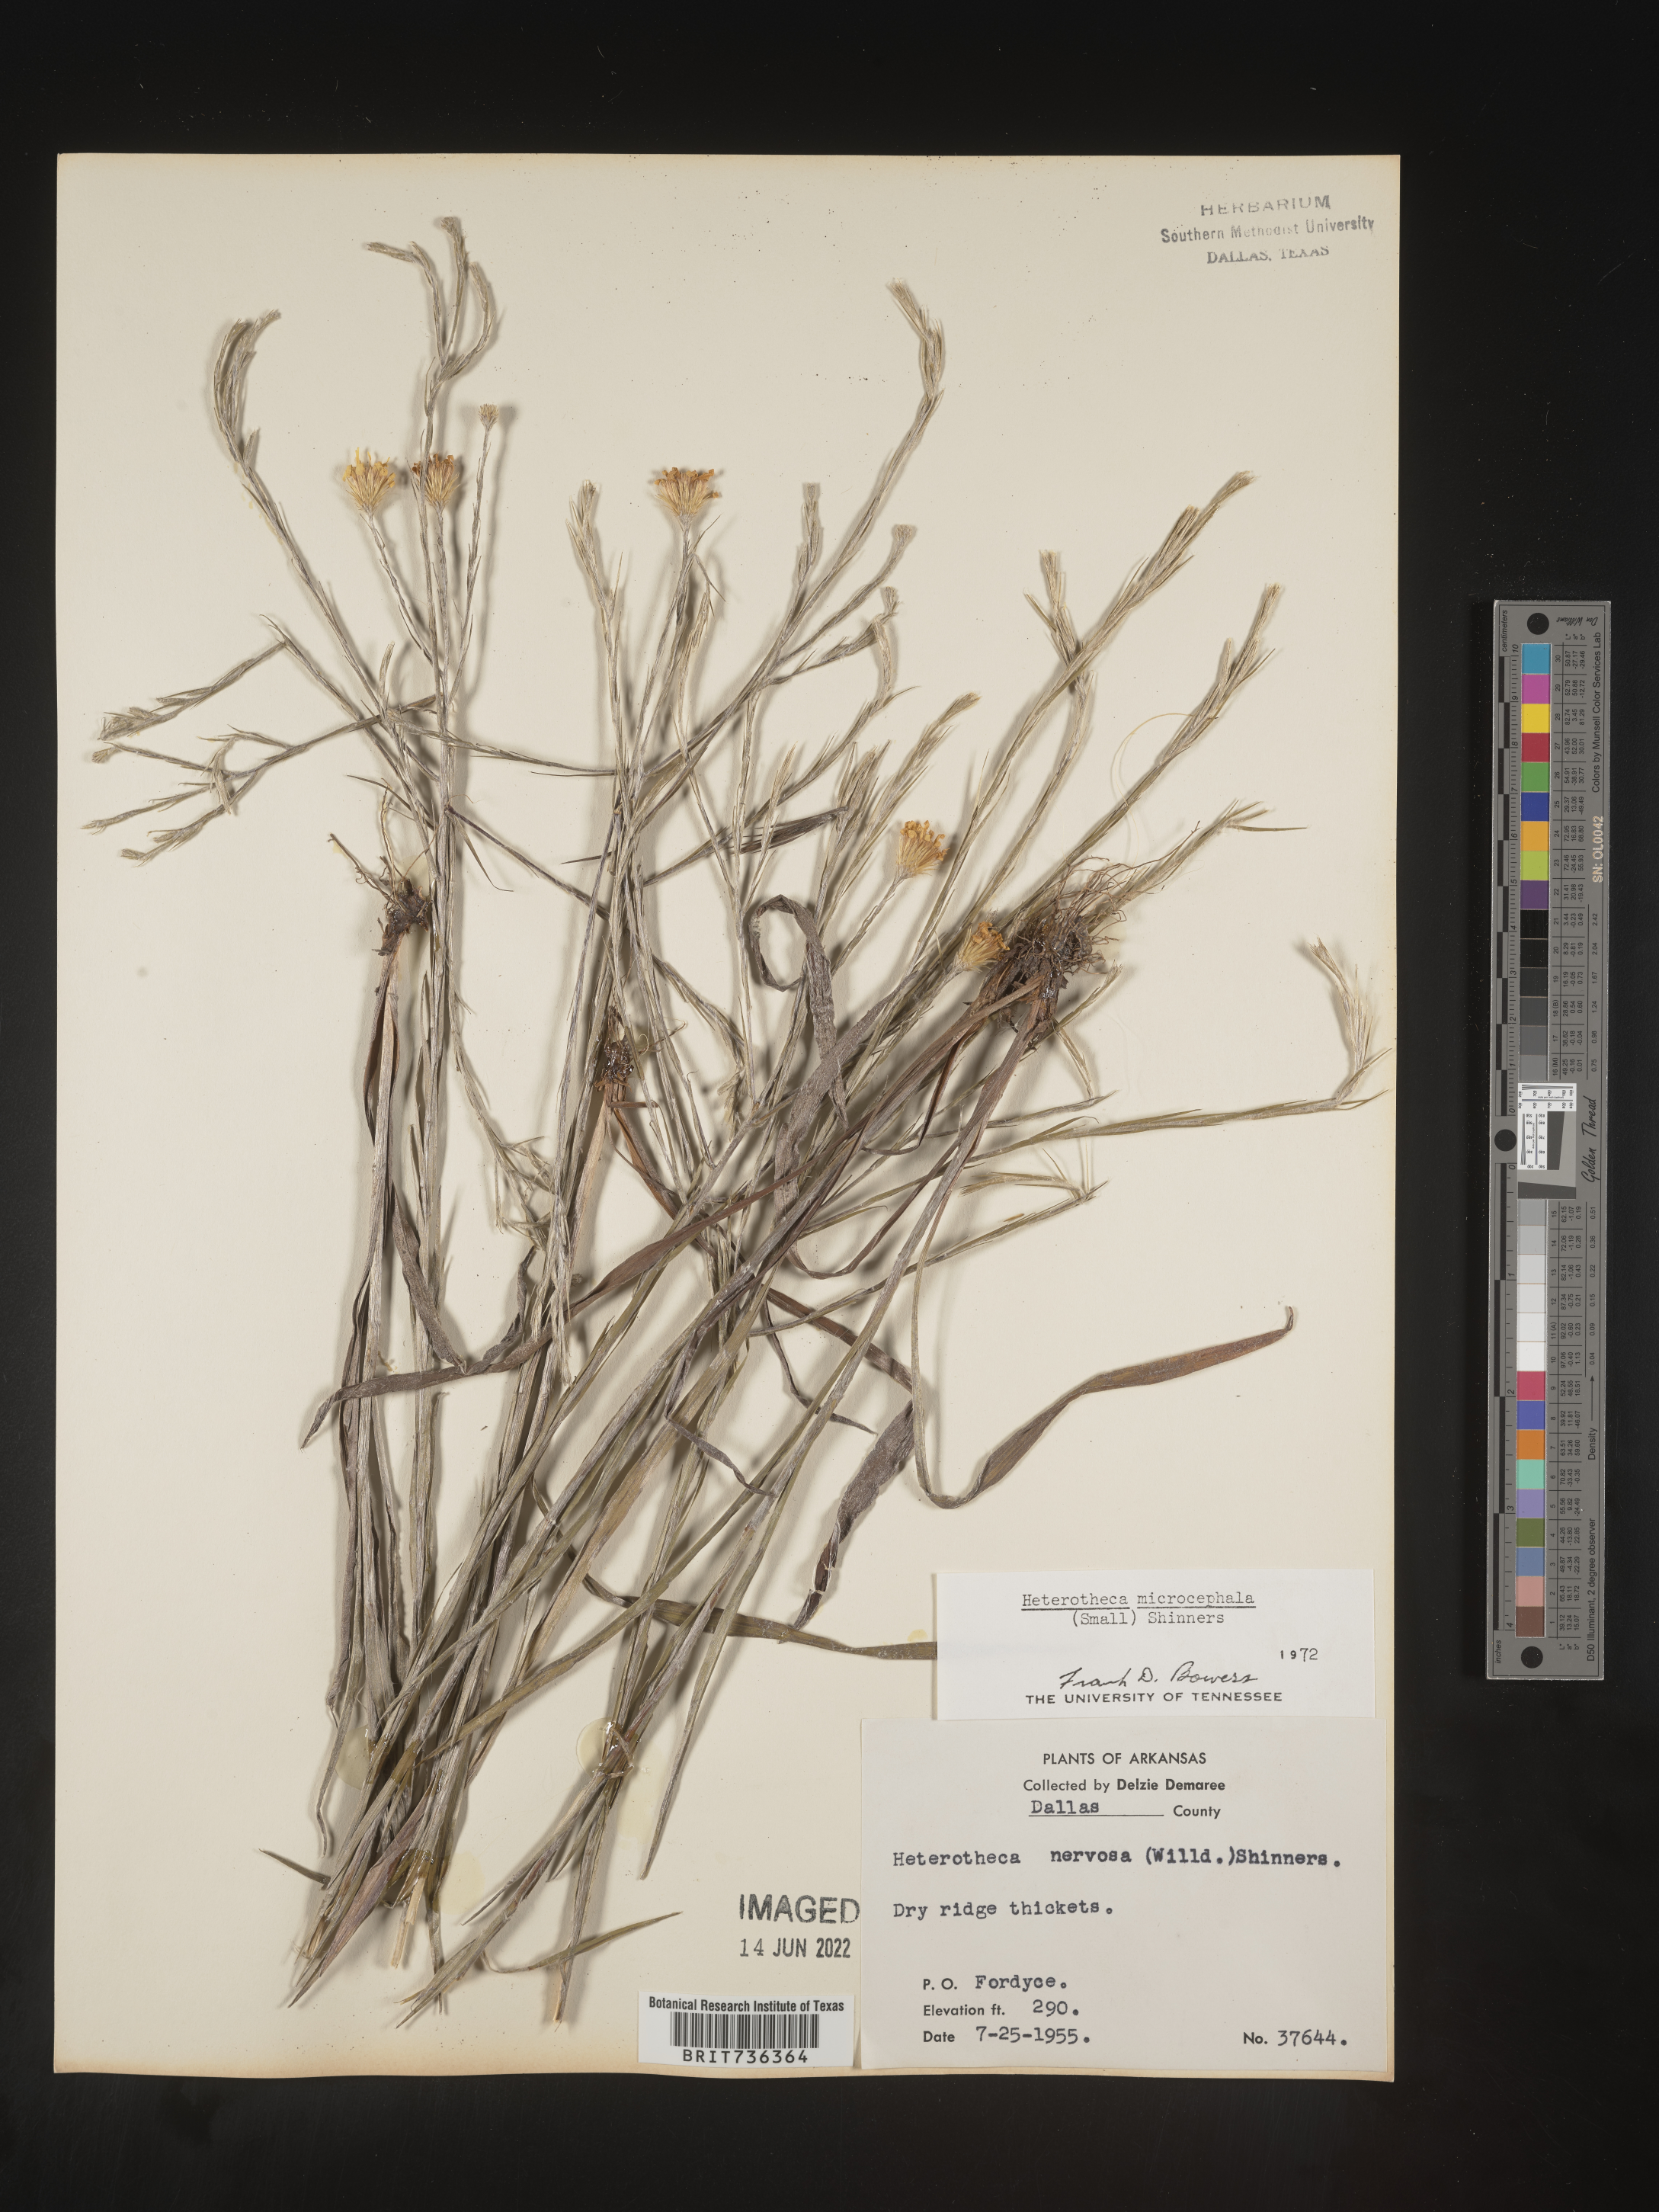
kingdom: Plantae
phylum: Tracheophyta
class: Magnoliopsida
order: Asterales
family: Asteraceae
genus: Pityopsis
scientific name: Pityopsis tenuifolia
